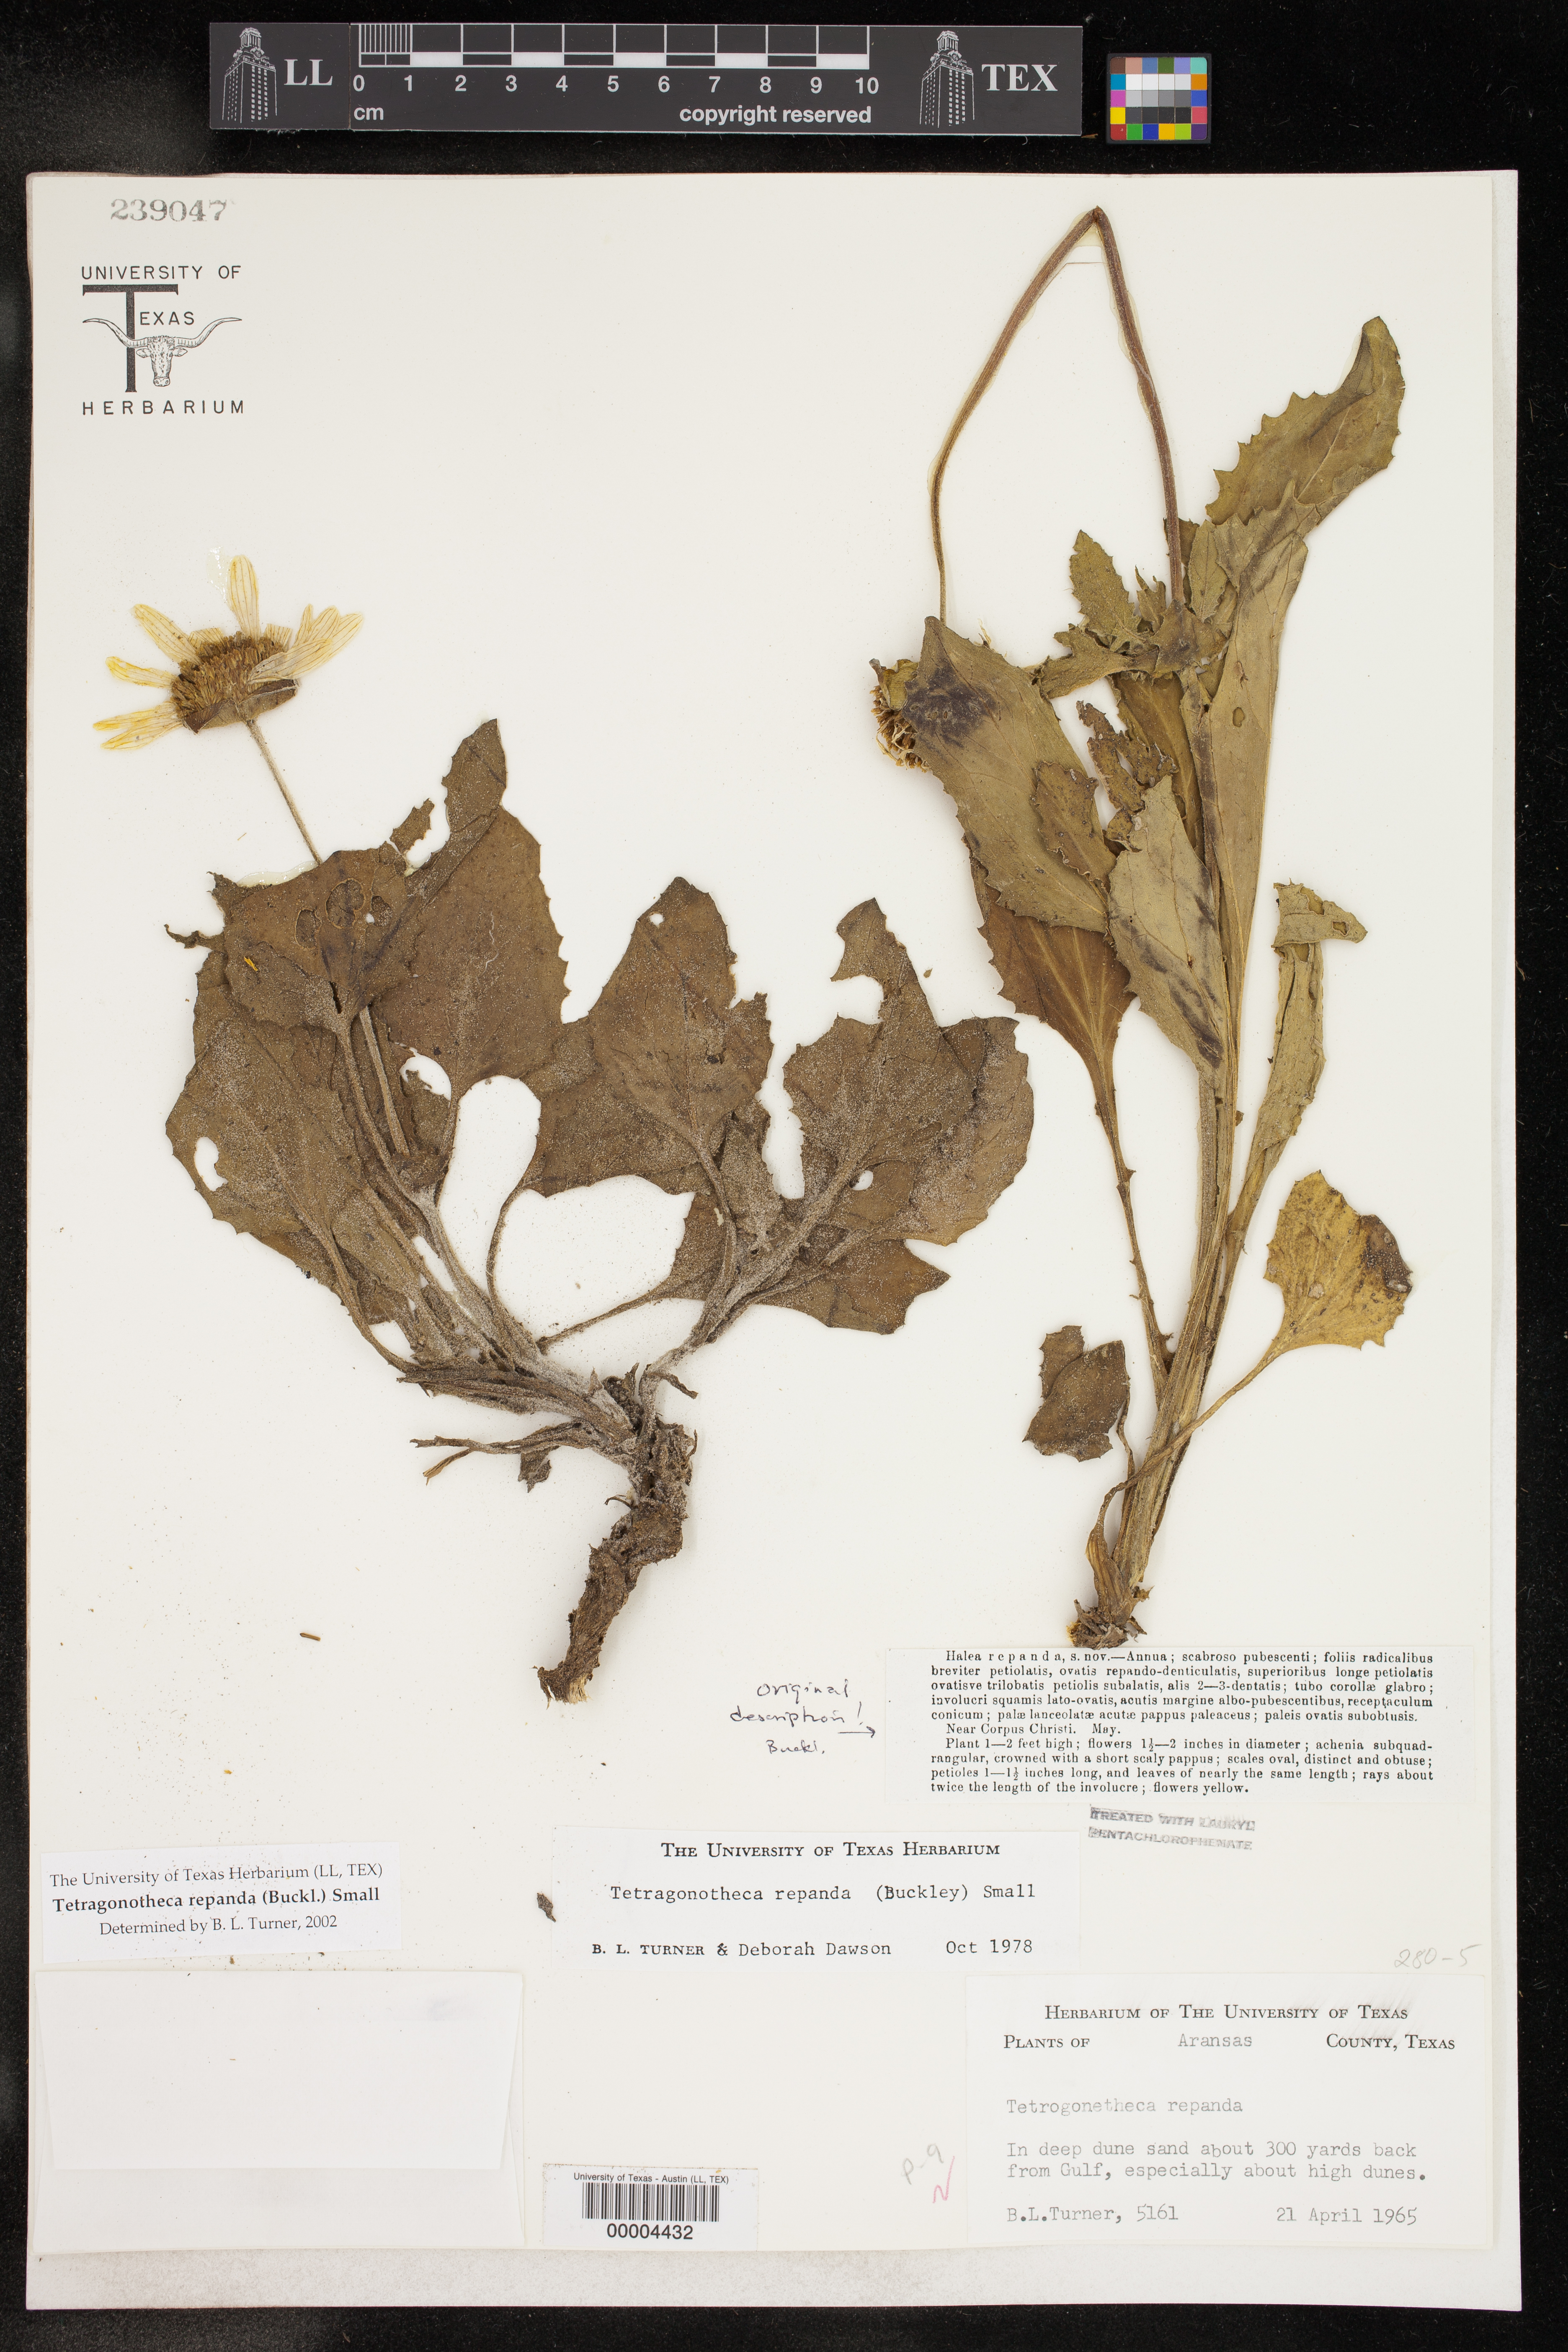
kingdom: Plantae
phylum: Tracheophyta
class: Magnoliopsida
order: Asterales
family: Asteraceae
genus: Tetragonotheca
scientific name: Tetragonotheca repanda
